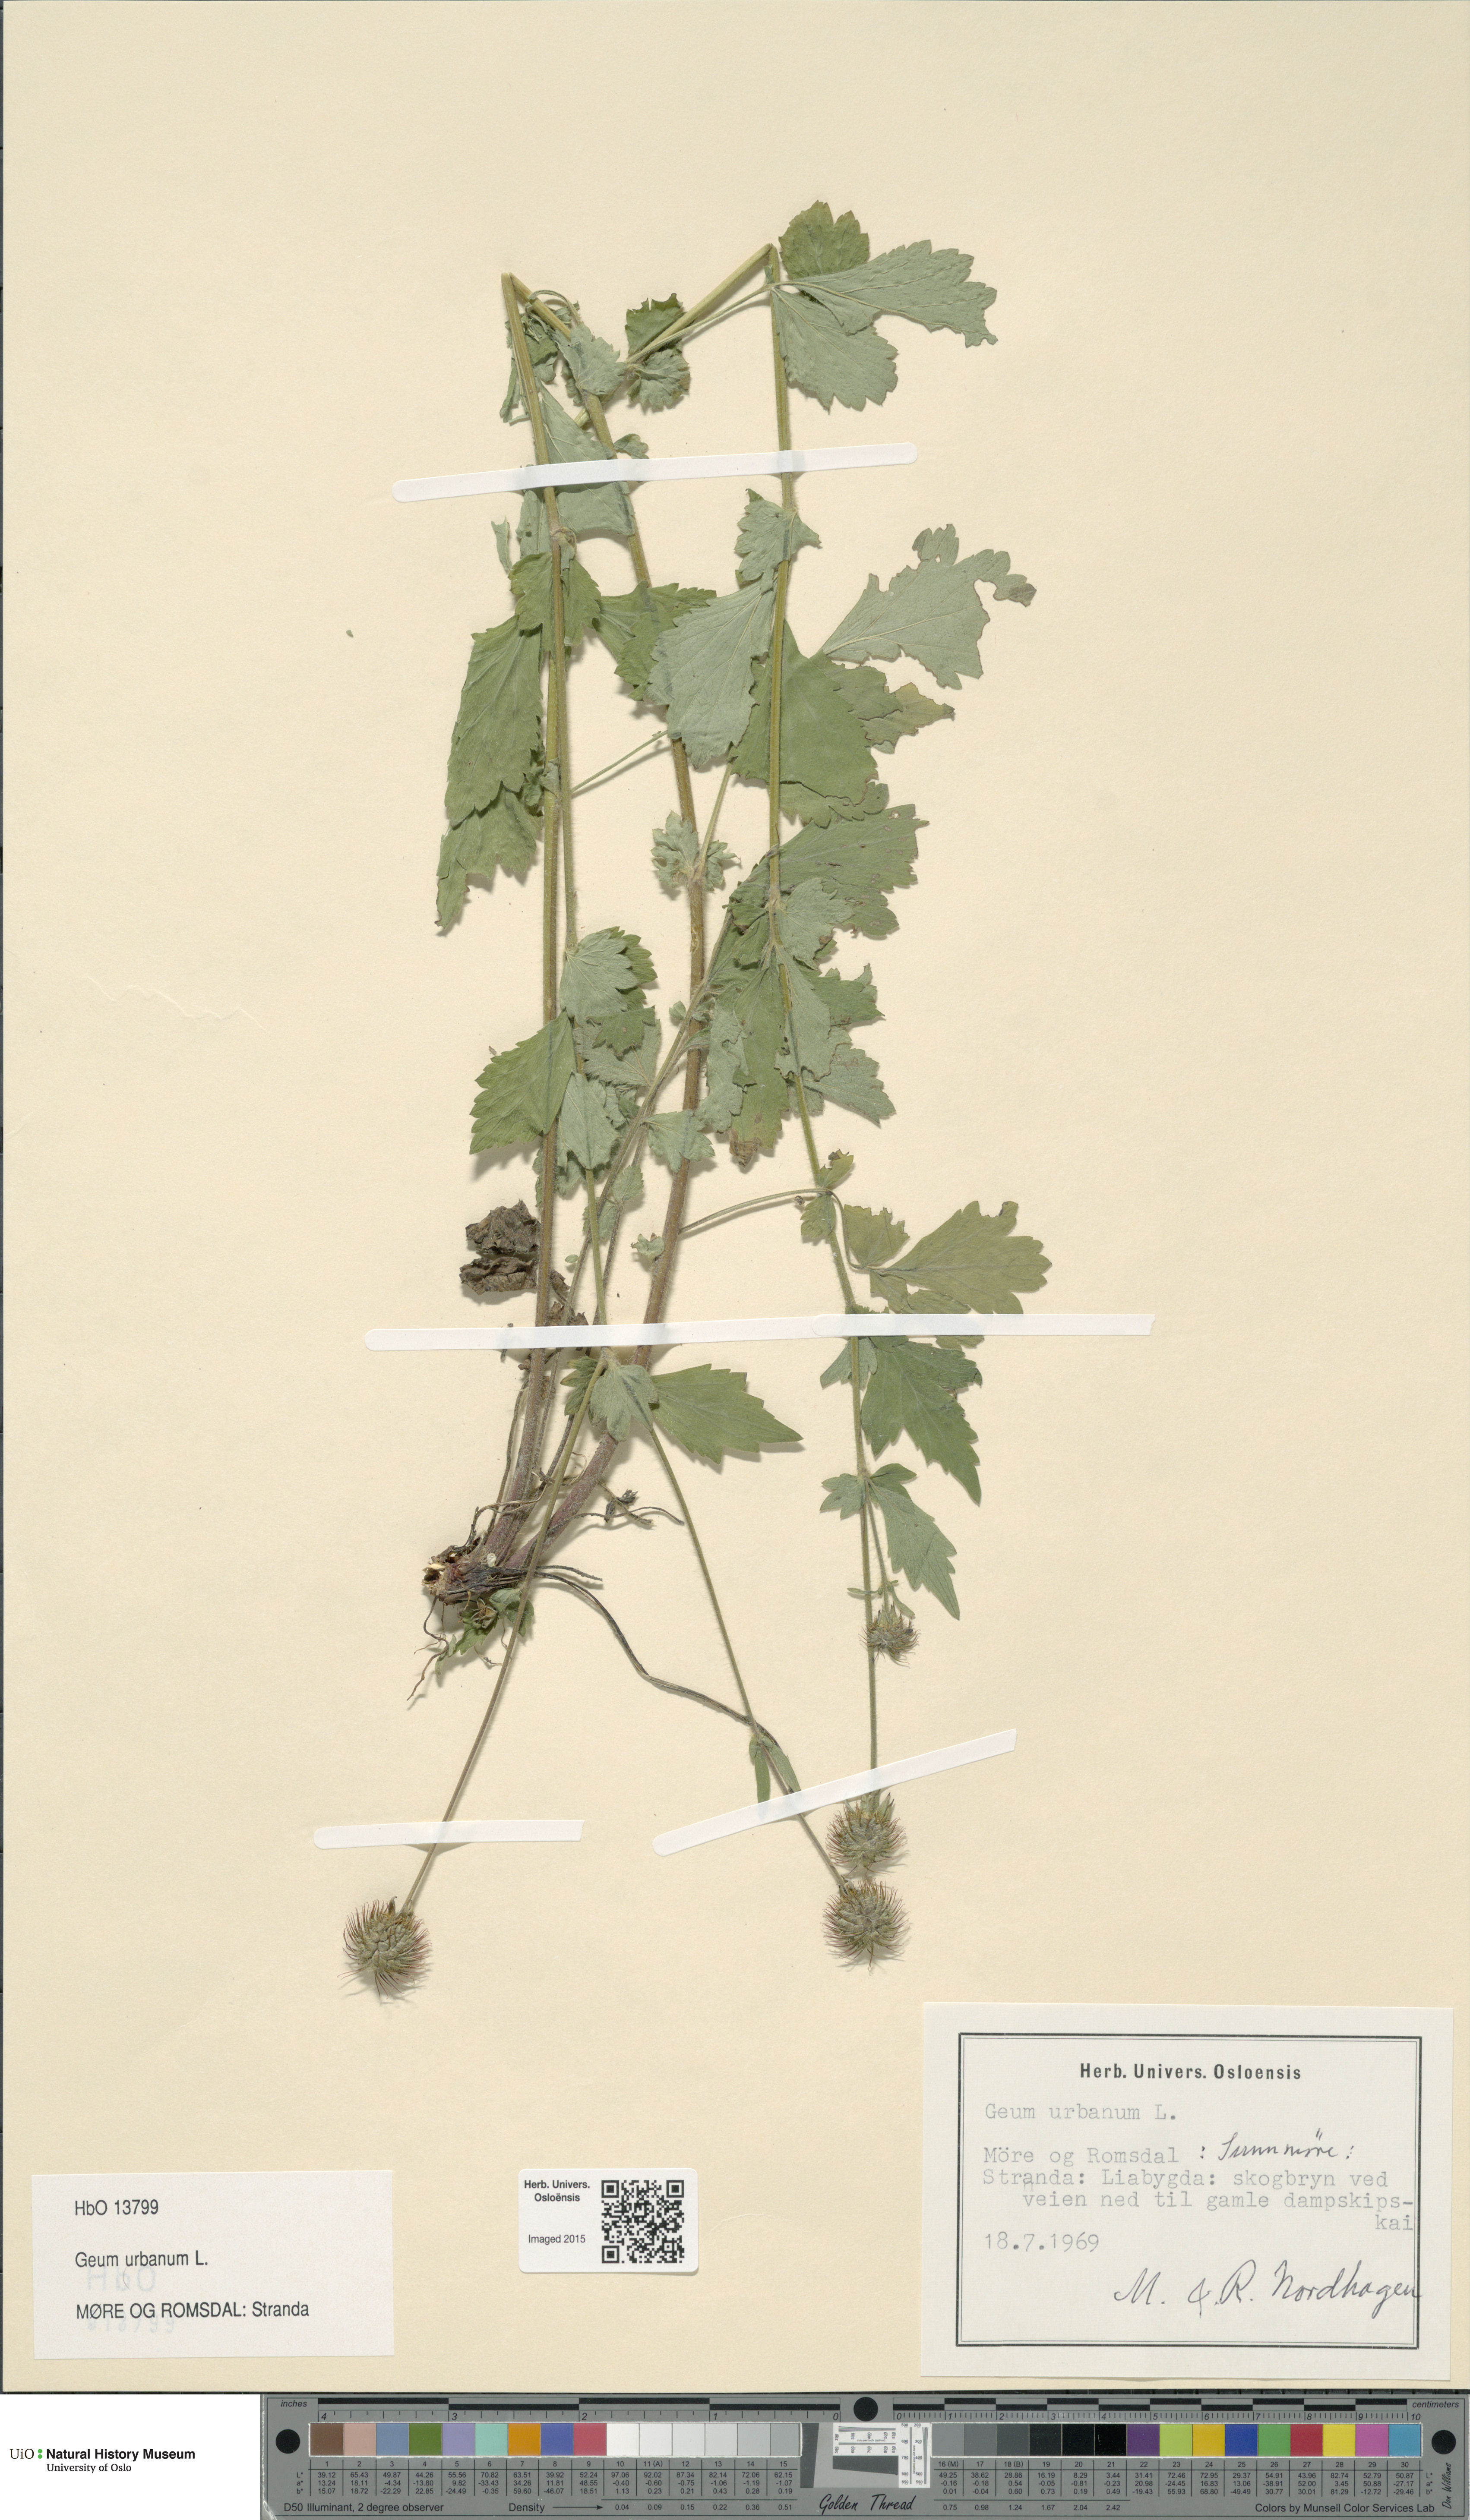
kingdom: Plantae
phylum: Tracheophyta
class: Magnoliopsida
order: Rosales
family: Rosaceae
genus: Geum
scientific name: Geum urbanum
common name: Wood avens
